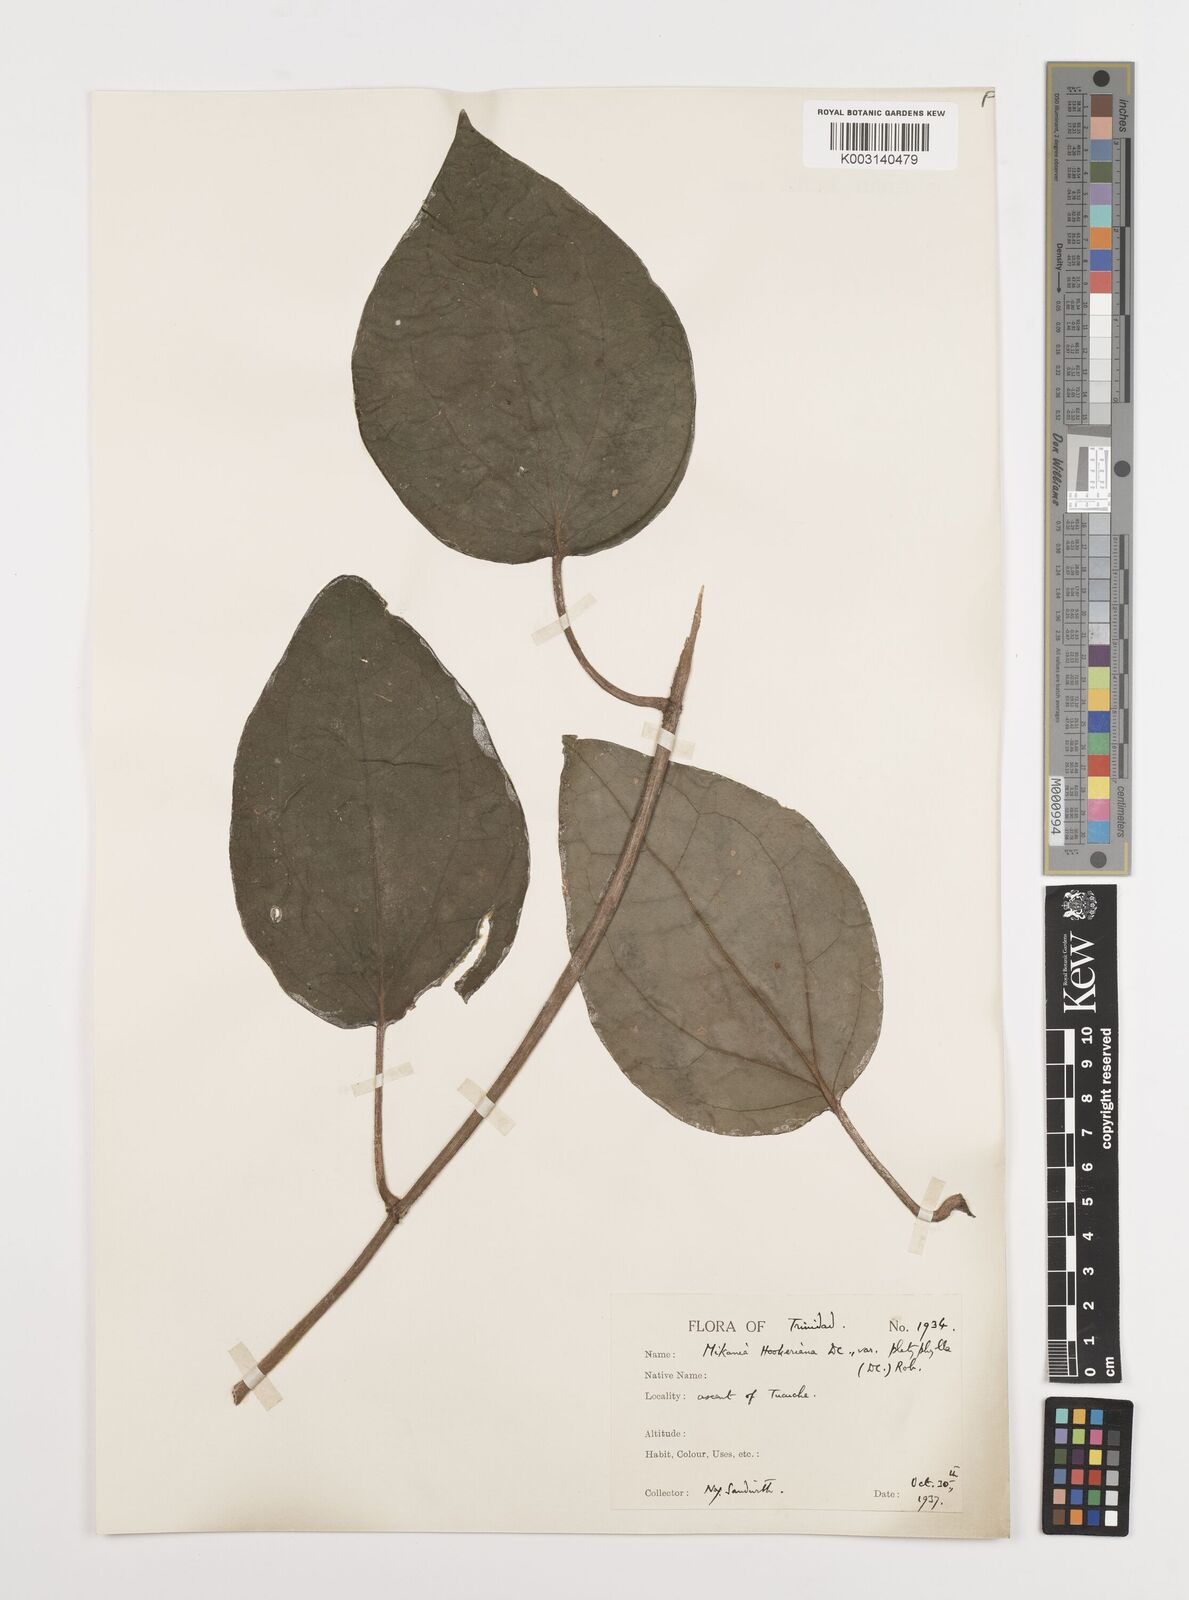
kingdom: Plantae
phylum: Tracheophyta
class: Magnoliopsida
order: Asterales
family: Asteraceae
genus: Mikania
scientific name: Mikania hookeriana
